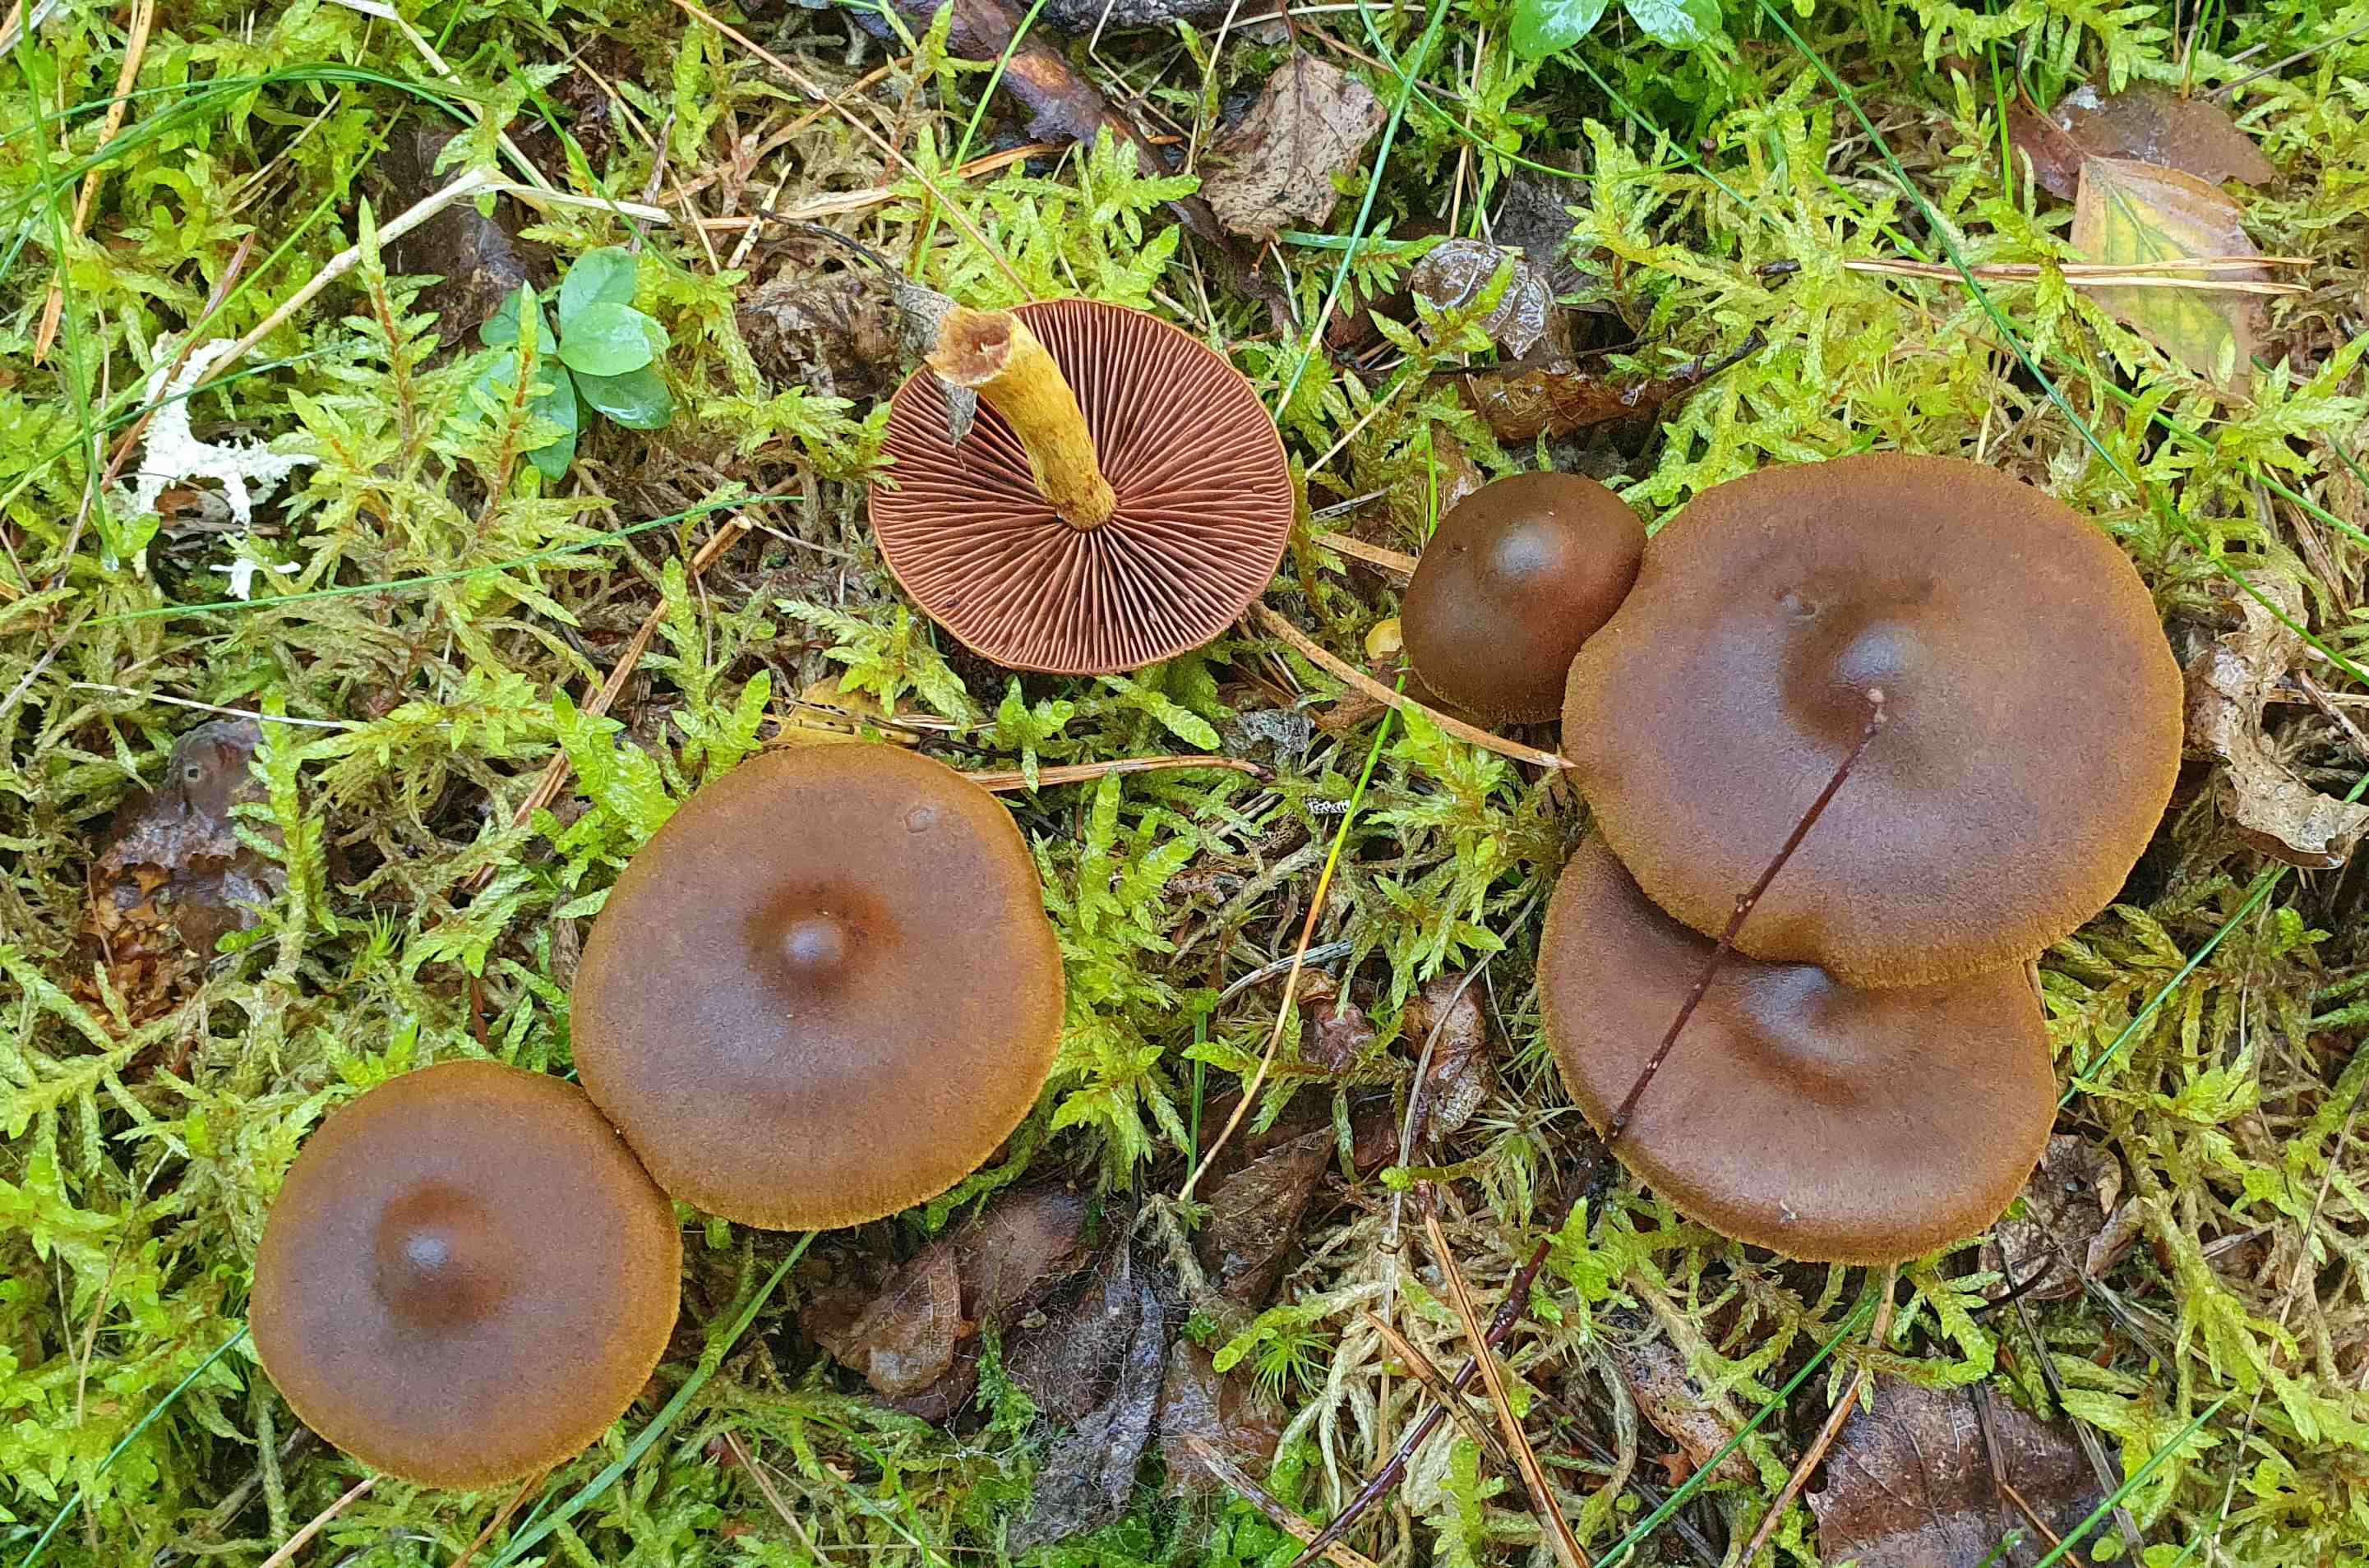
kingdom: Fungi
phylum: Basidiomycota
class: Agaricomycetes
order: Agaricales
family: Cortinariaceae
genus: Cortinarius
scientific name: Cortinarius
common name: cinnoberbladet slørhat
